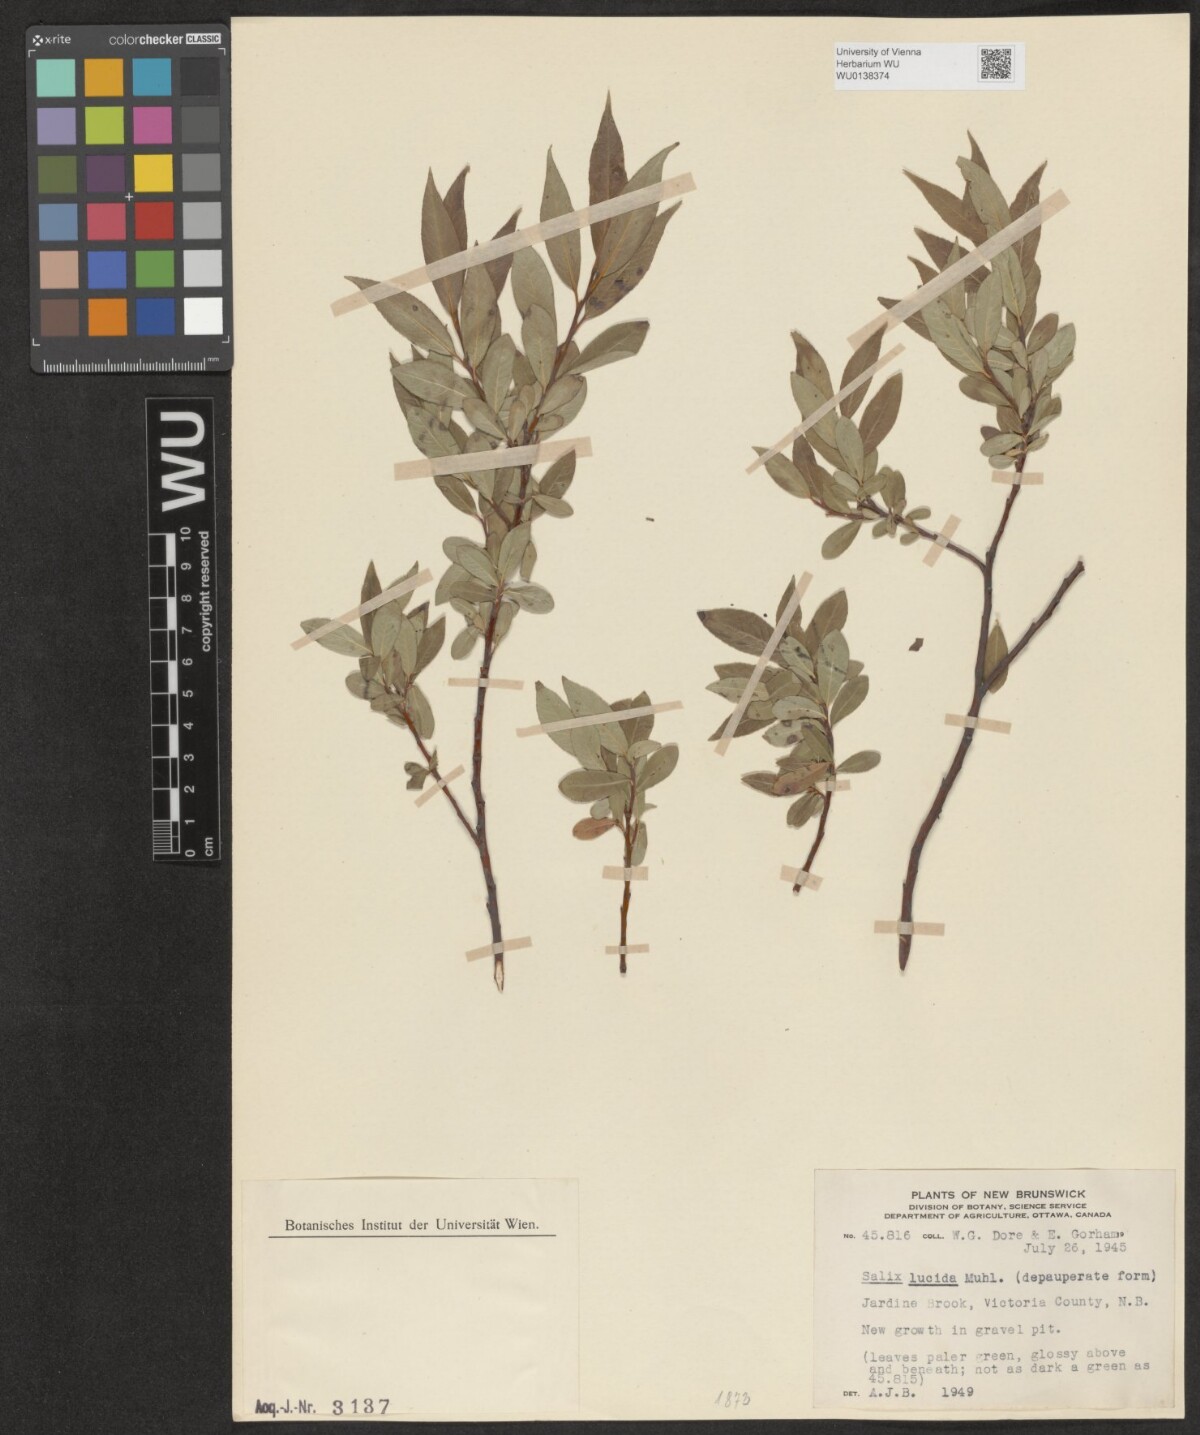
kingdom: Plantae
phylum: Tracheophyta
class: Magnoliopsida
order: Malpighiales
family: Salicaceae
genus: Salix
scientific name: Salix lucida
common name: Shining willow
